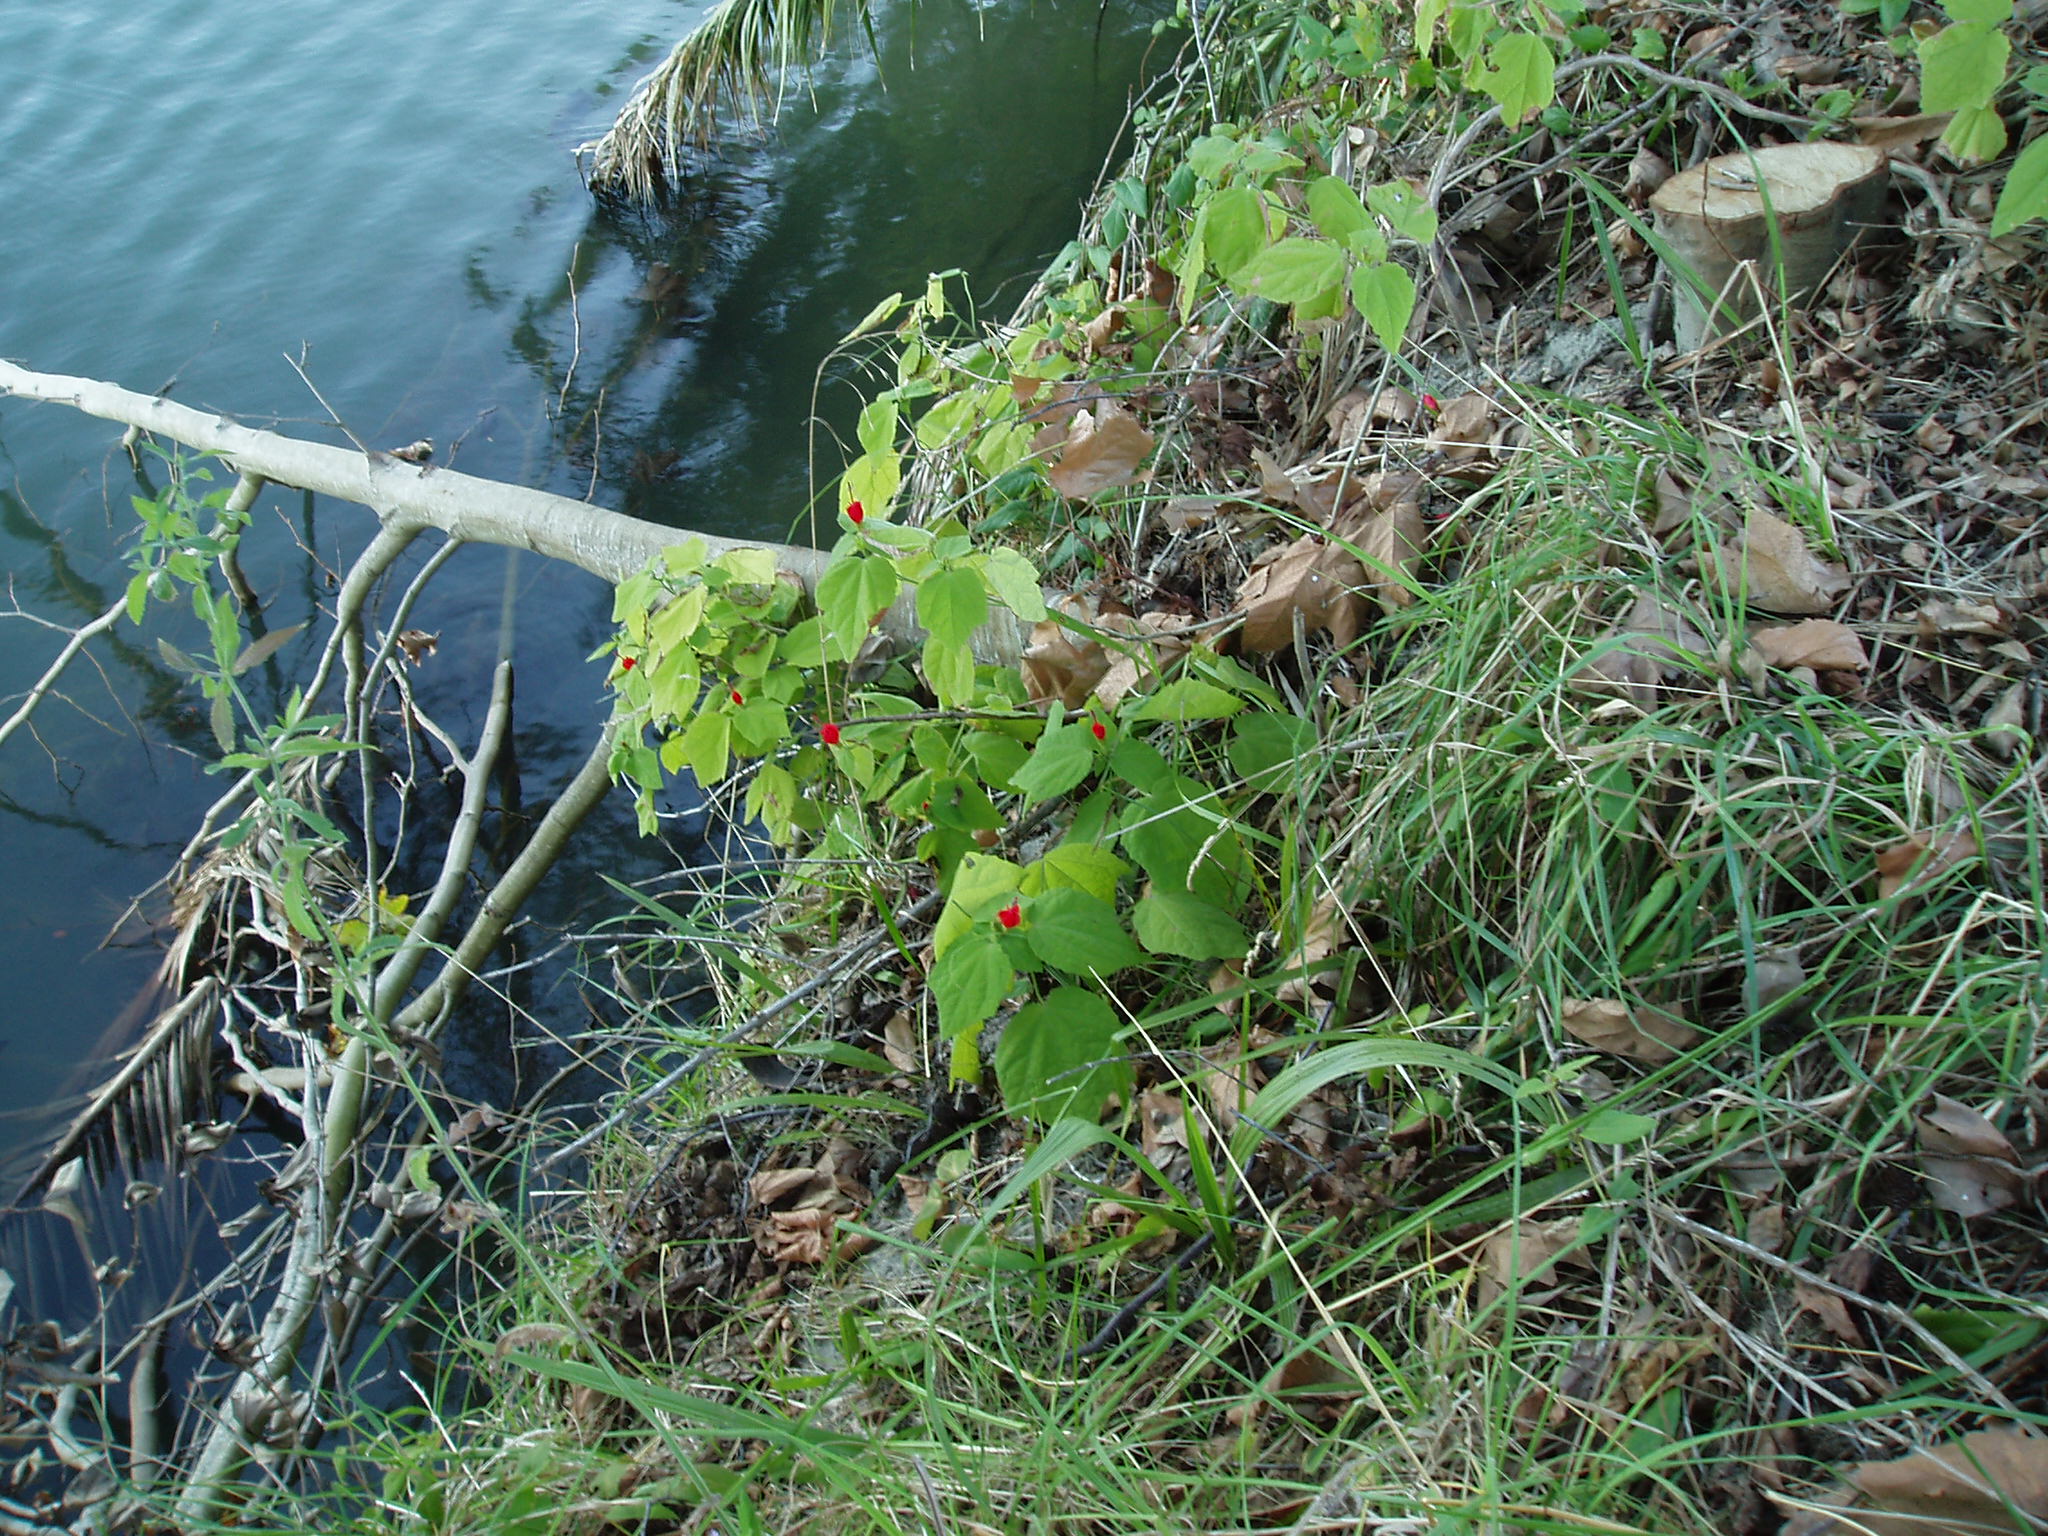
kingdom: Plantae
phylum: Tracheophyta
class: Magnoliopsida
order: Malvales
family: Malvaceae
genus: Malvaviscus
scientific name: Malvaviscus arboreus
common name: Wax mallow
